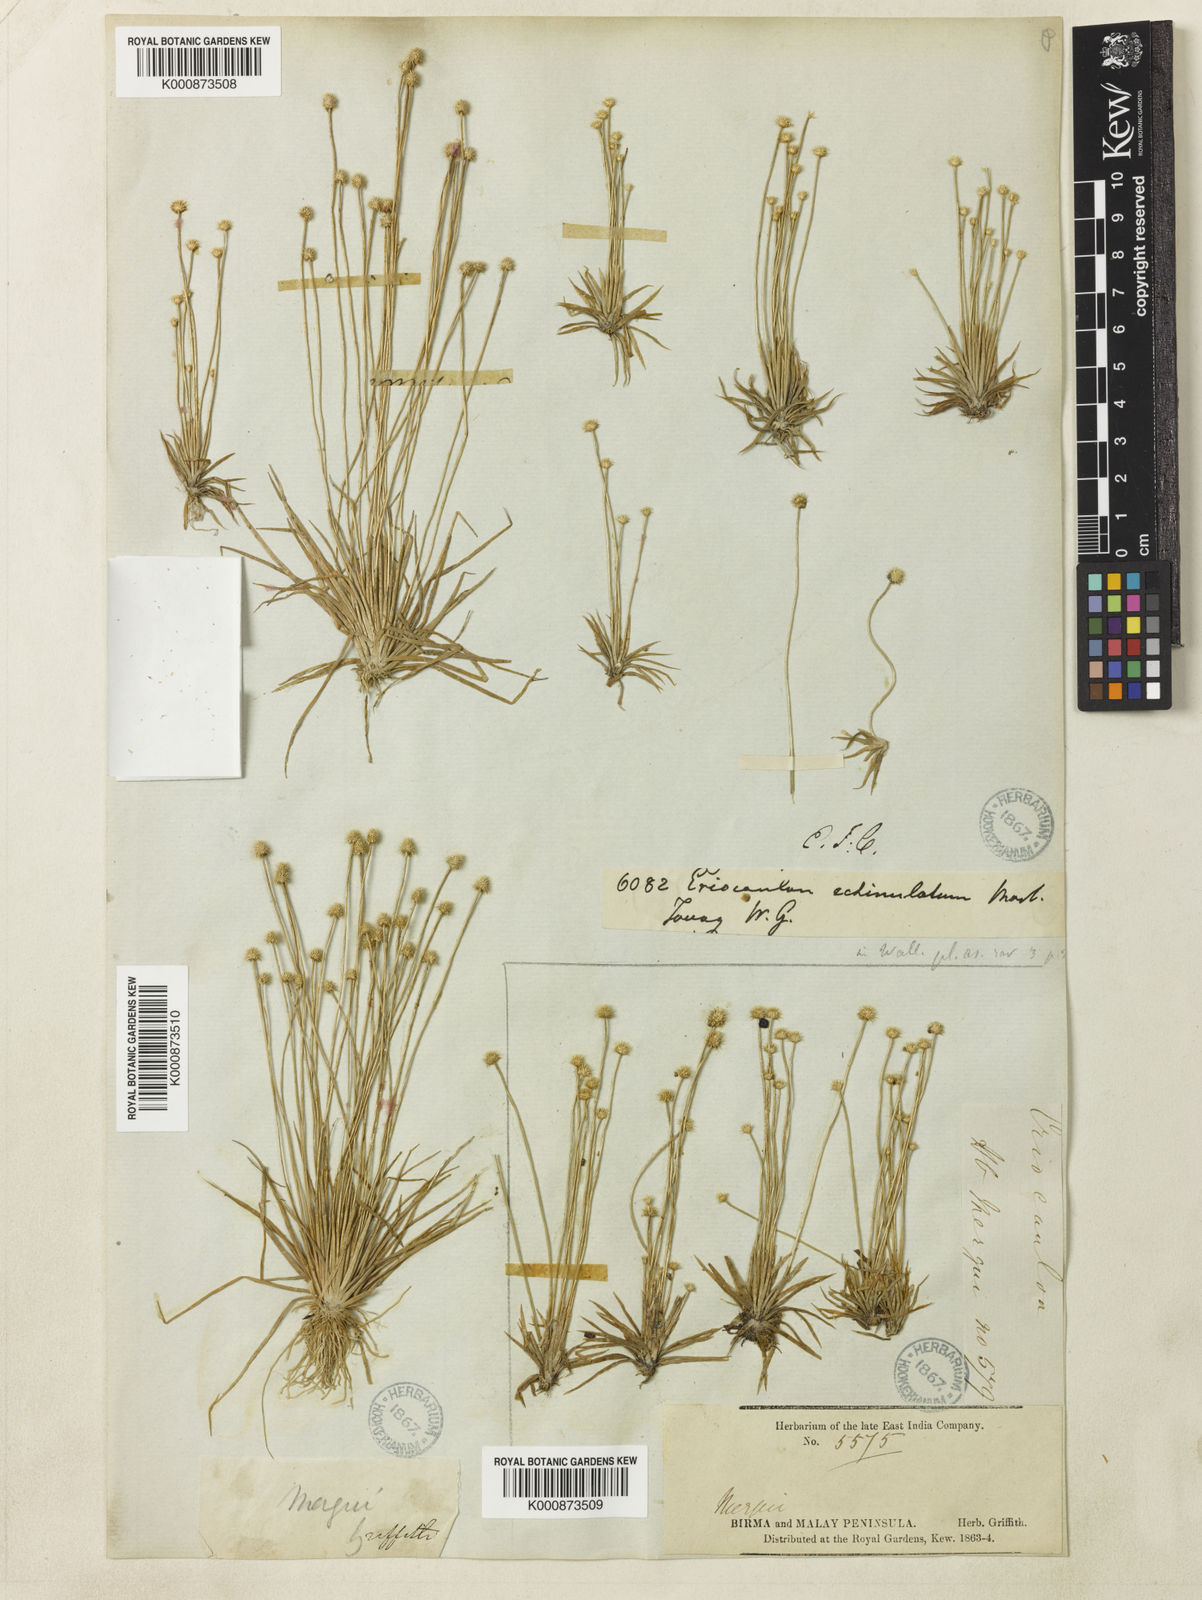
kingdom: Plantae
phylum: Tracheophyta
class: Liliopsida
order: Poales
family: Eriocaulaceae
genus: Eriocaulon
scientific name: Eriocaulon echinulatum
